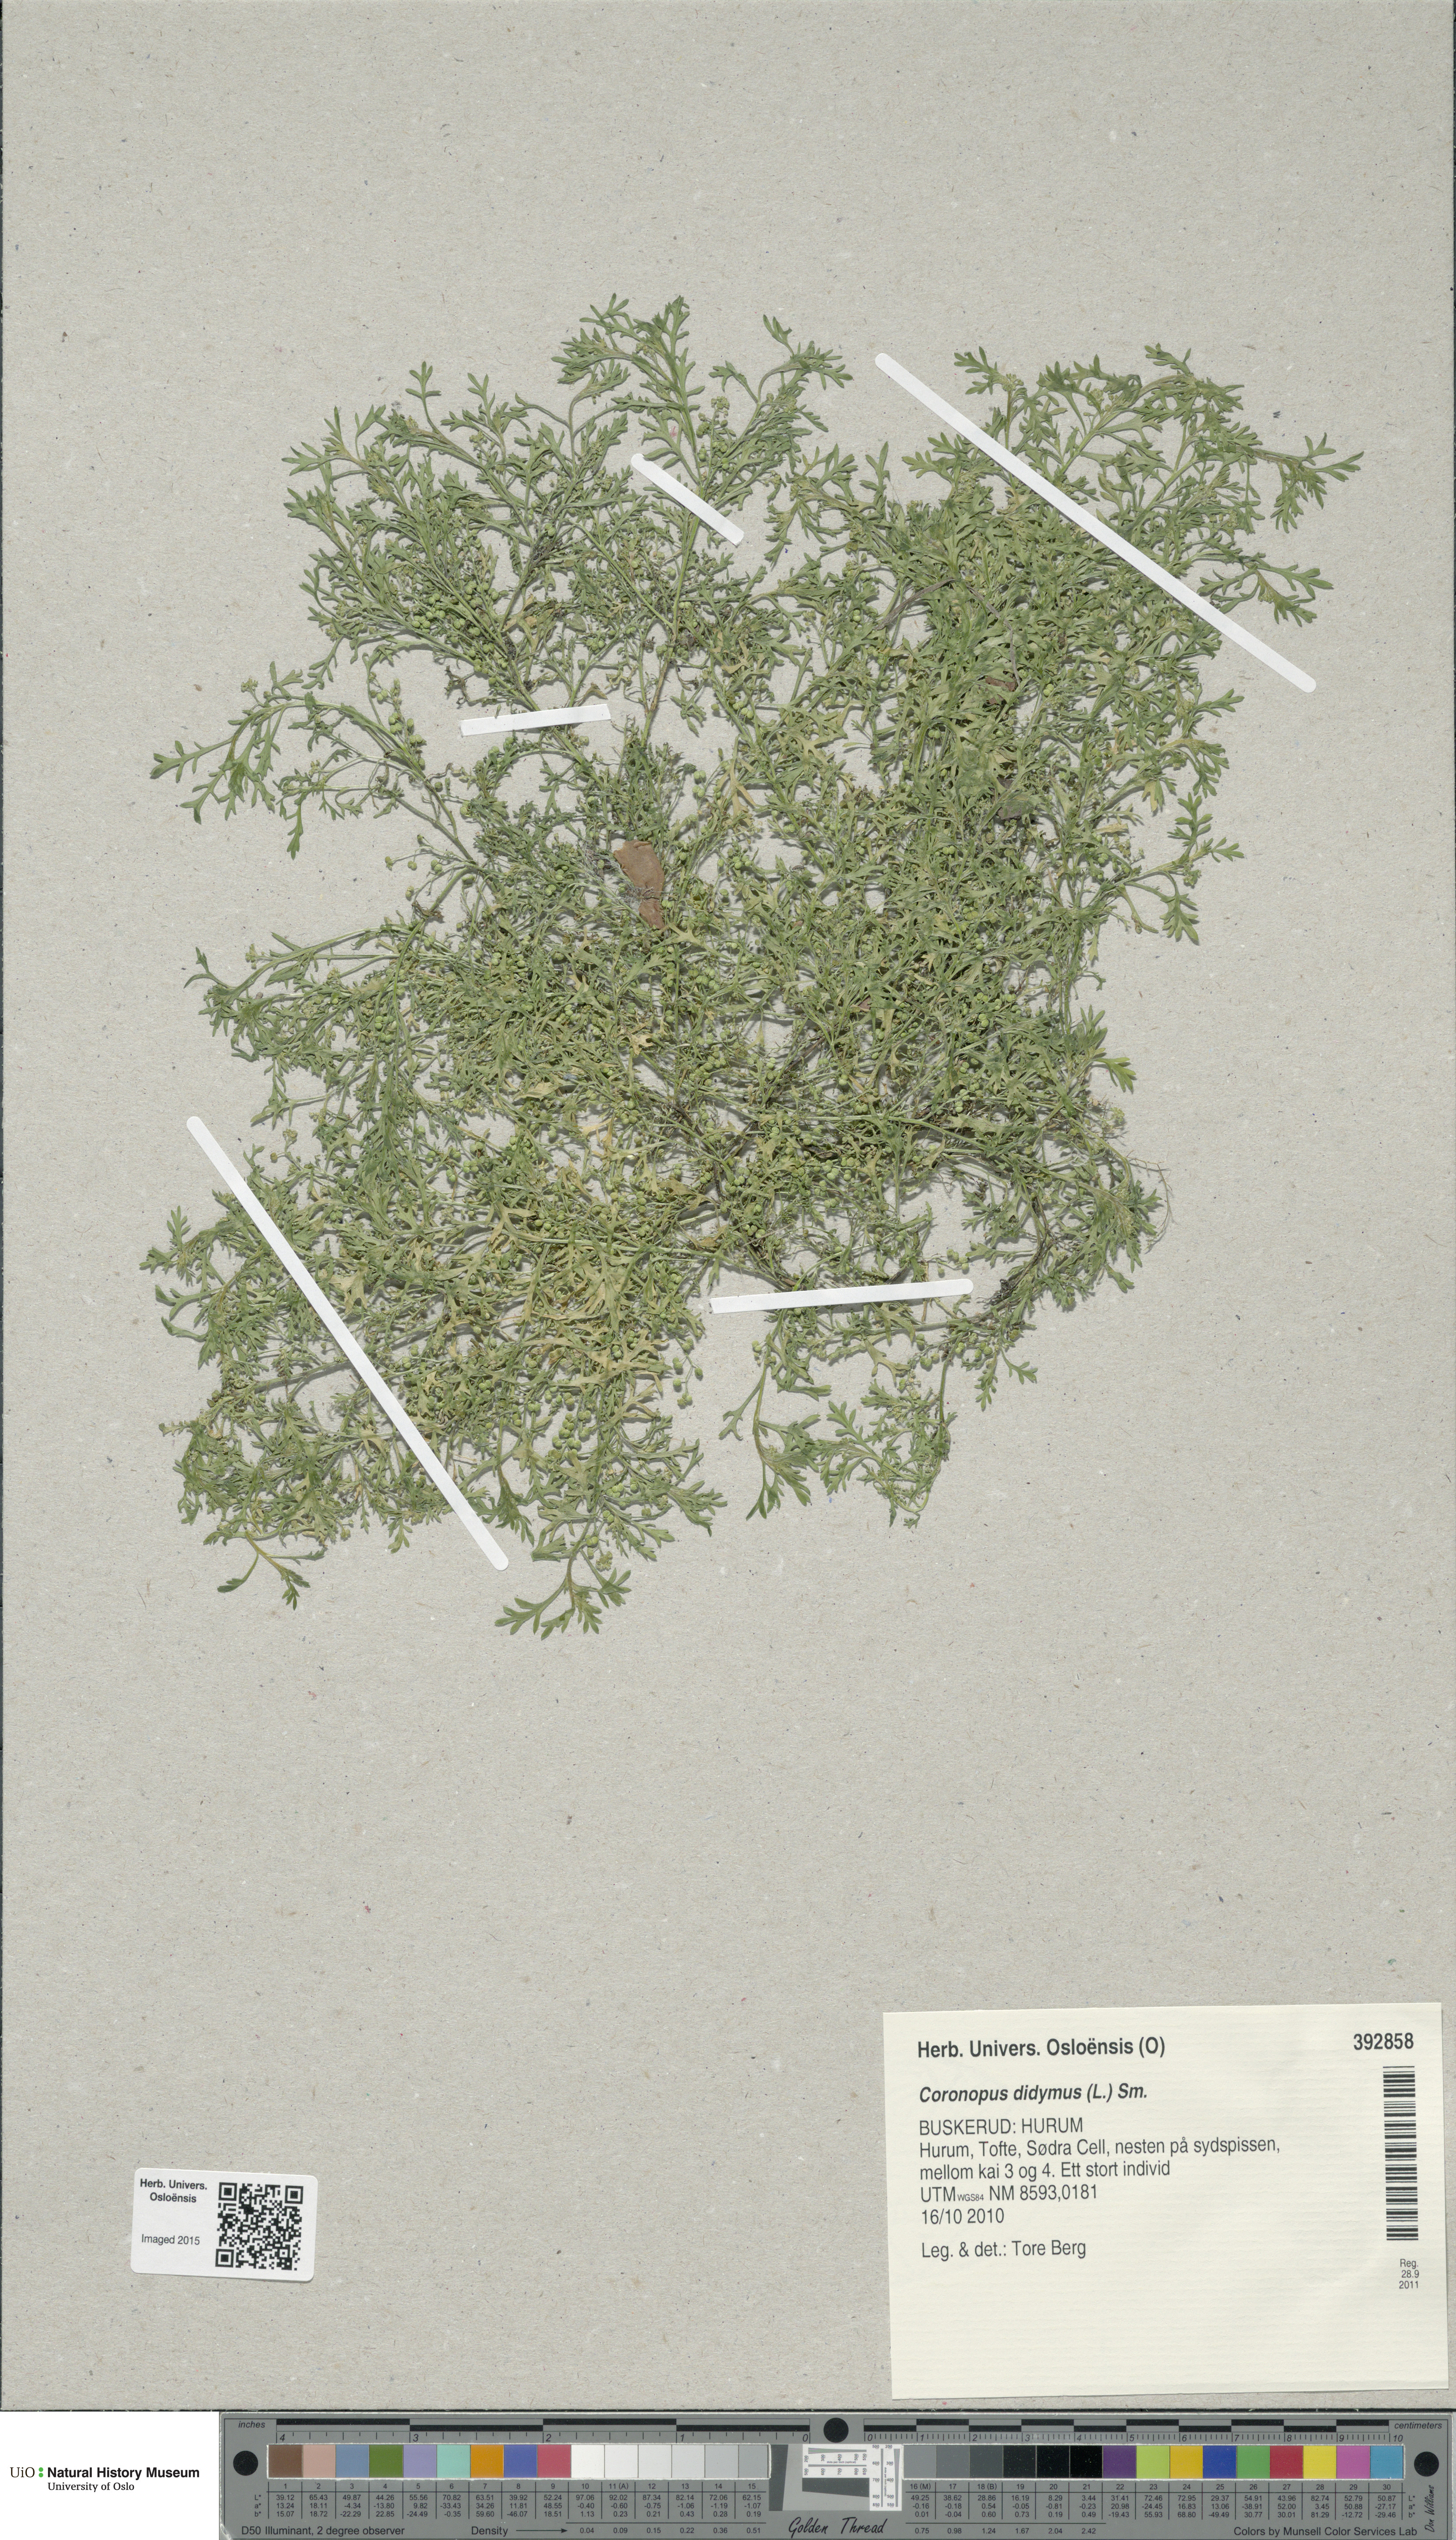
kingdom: Plantae
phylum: Tracheophyta
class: Magnoliopsida
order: Brassicales
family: Brassicaceae
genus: Lepidium
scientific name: Lepidium didymum
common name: Lesser swinecress
